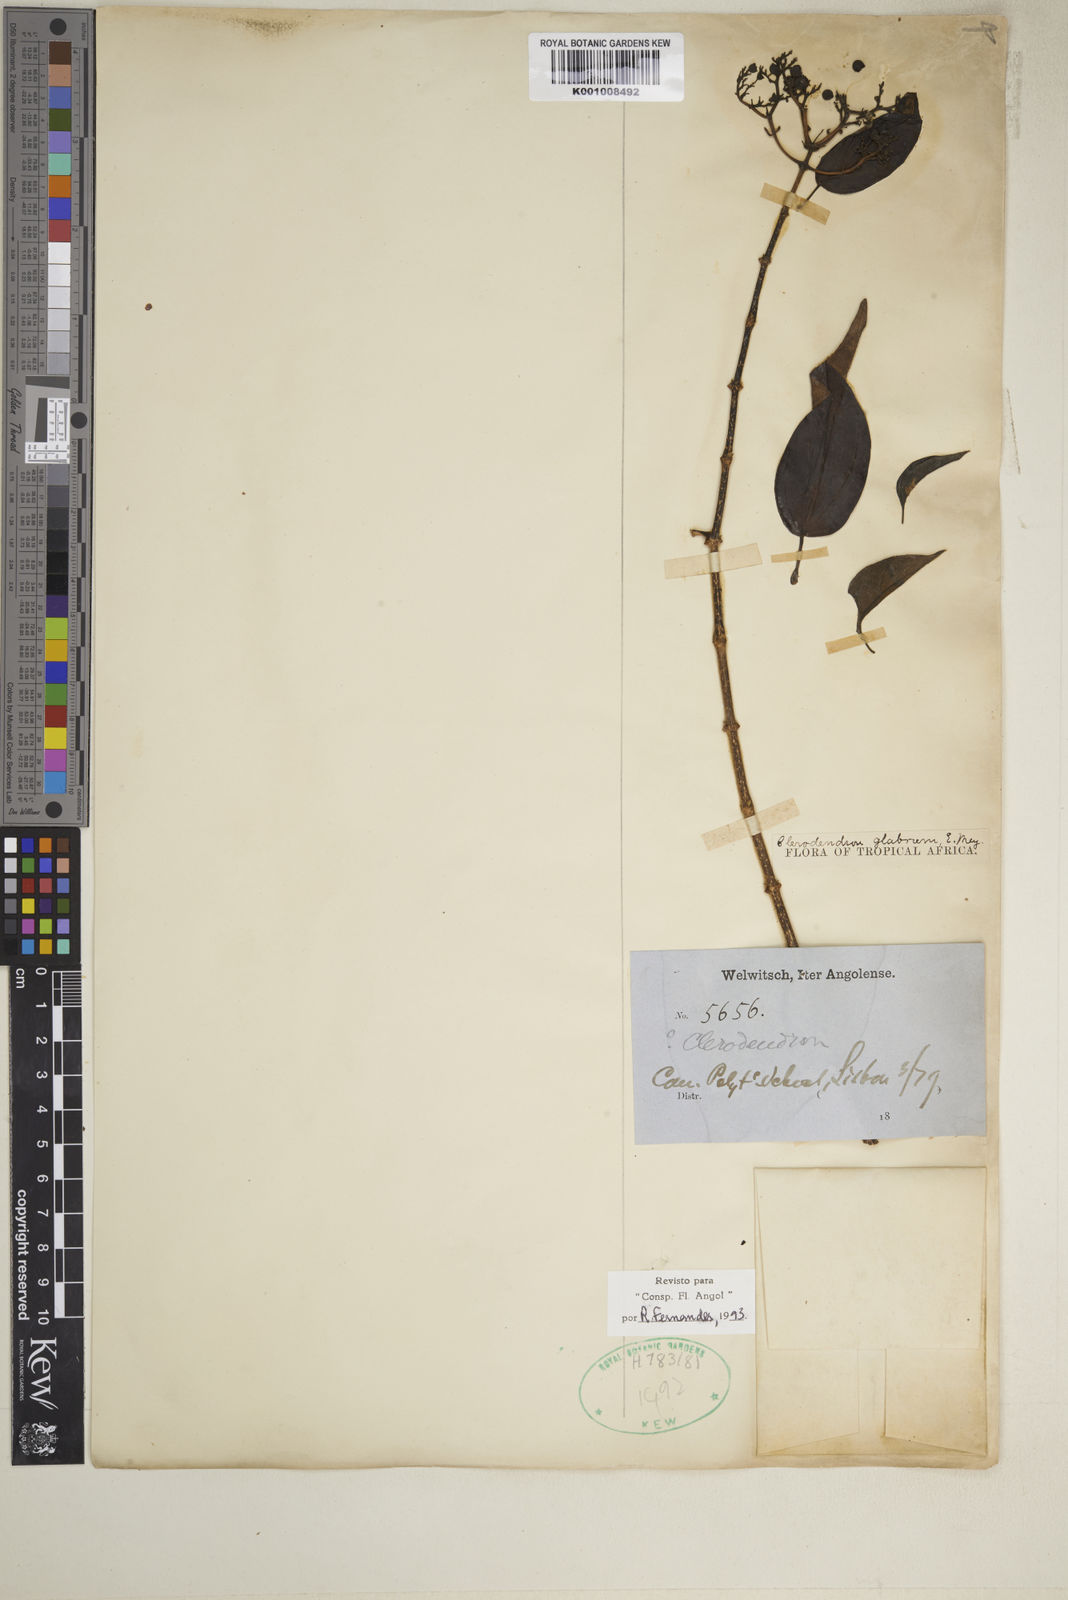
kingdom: Plantae
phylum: Tracheophyta
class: Magnoliopsida
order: Lamiales
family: Lamiaceae
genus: Volkameria
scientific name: Volkameria glabra
